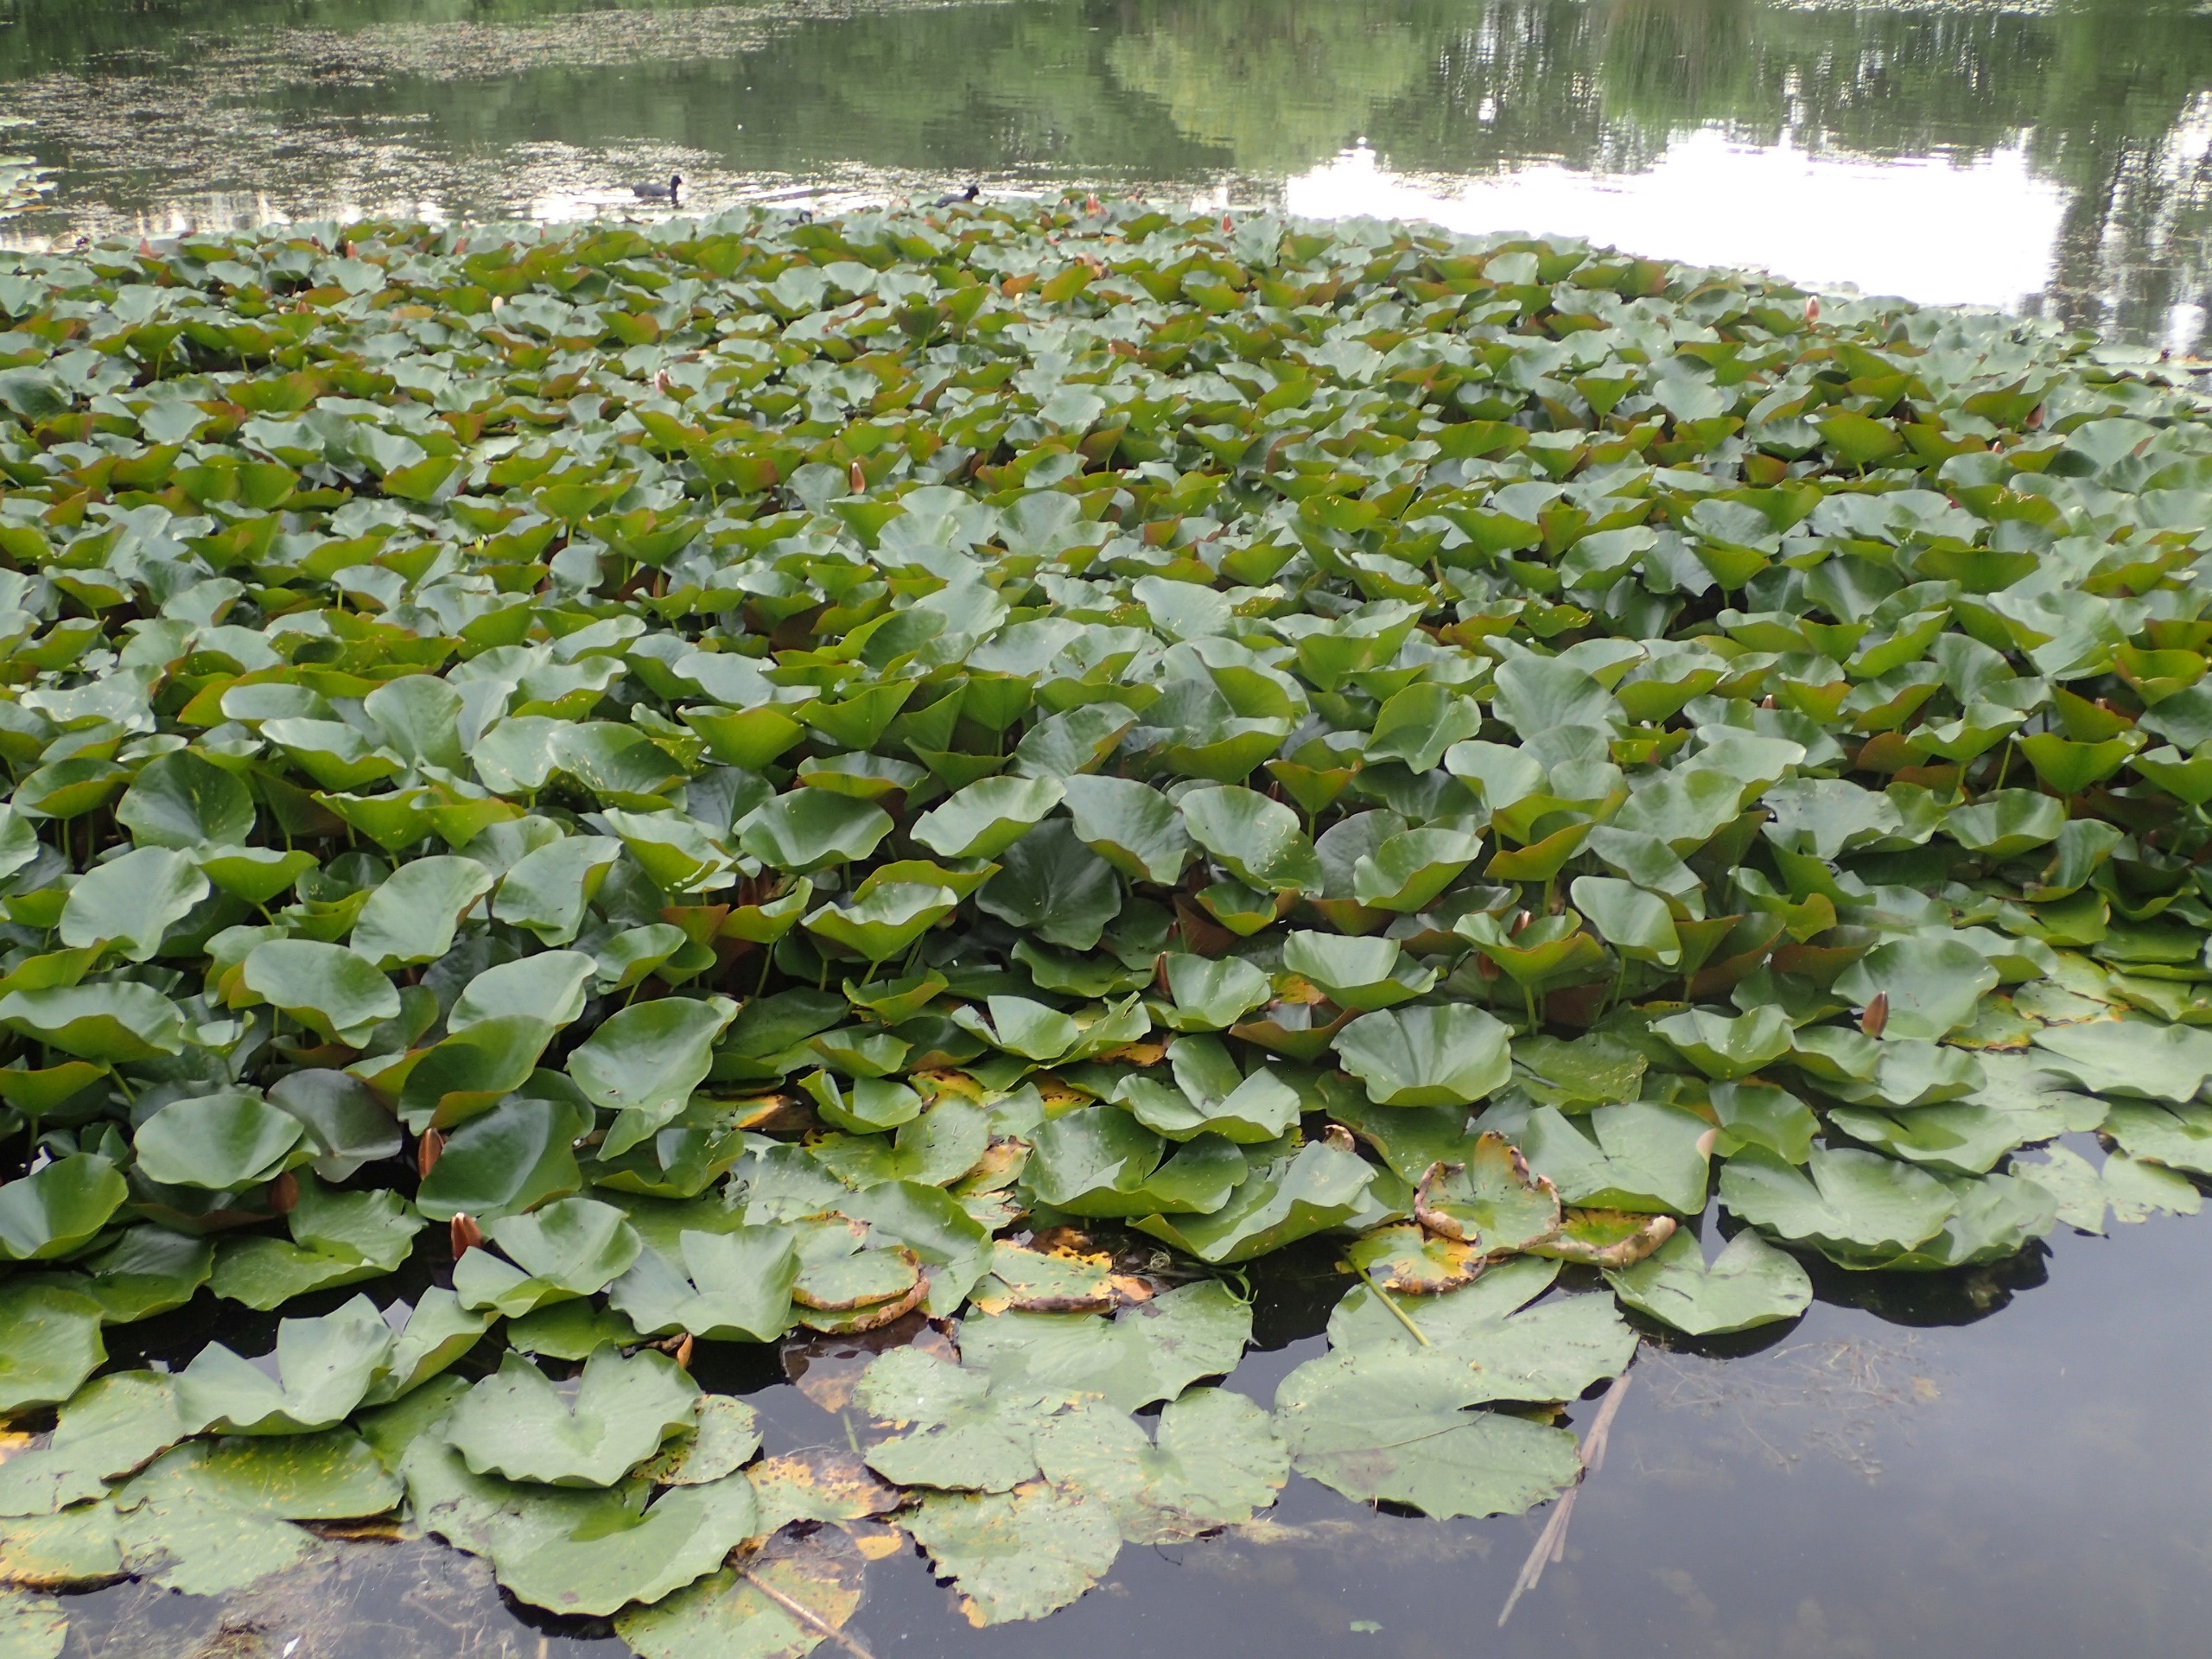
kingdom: Plantae
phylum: Tracheophyta
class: Magnoliopsida
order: Nymphaeales
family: Nymphaeaceae
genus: Nymphaea
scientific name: Nymphaea alba
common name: Hvid åkande
